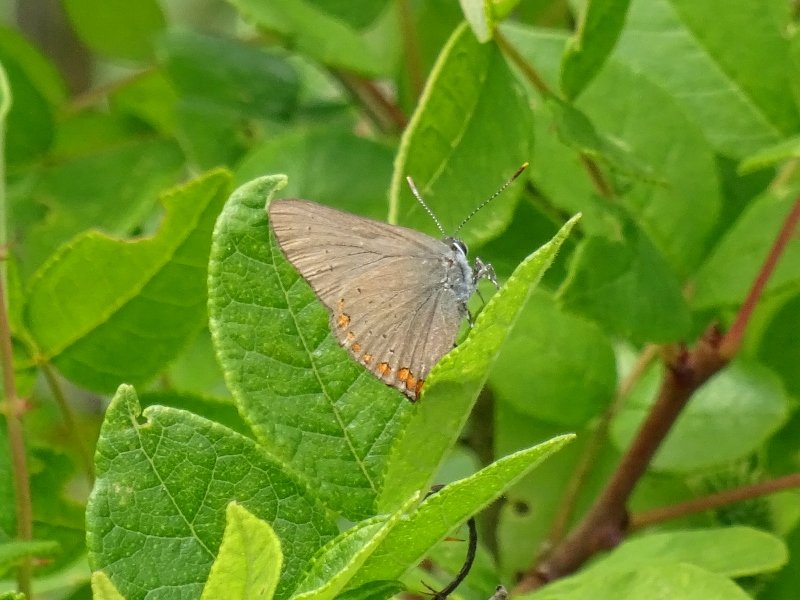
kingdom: Animalia
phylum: Arthropoda
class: Insecta
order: Lepidoptera
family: Lycaenidae
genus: Harkenclenus
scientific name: Harkenclenus titus
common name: Coral Hairstreak
